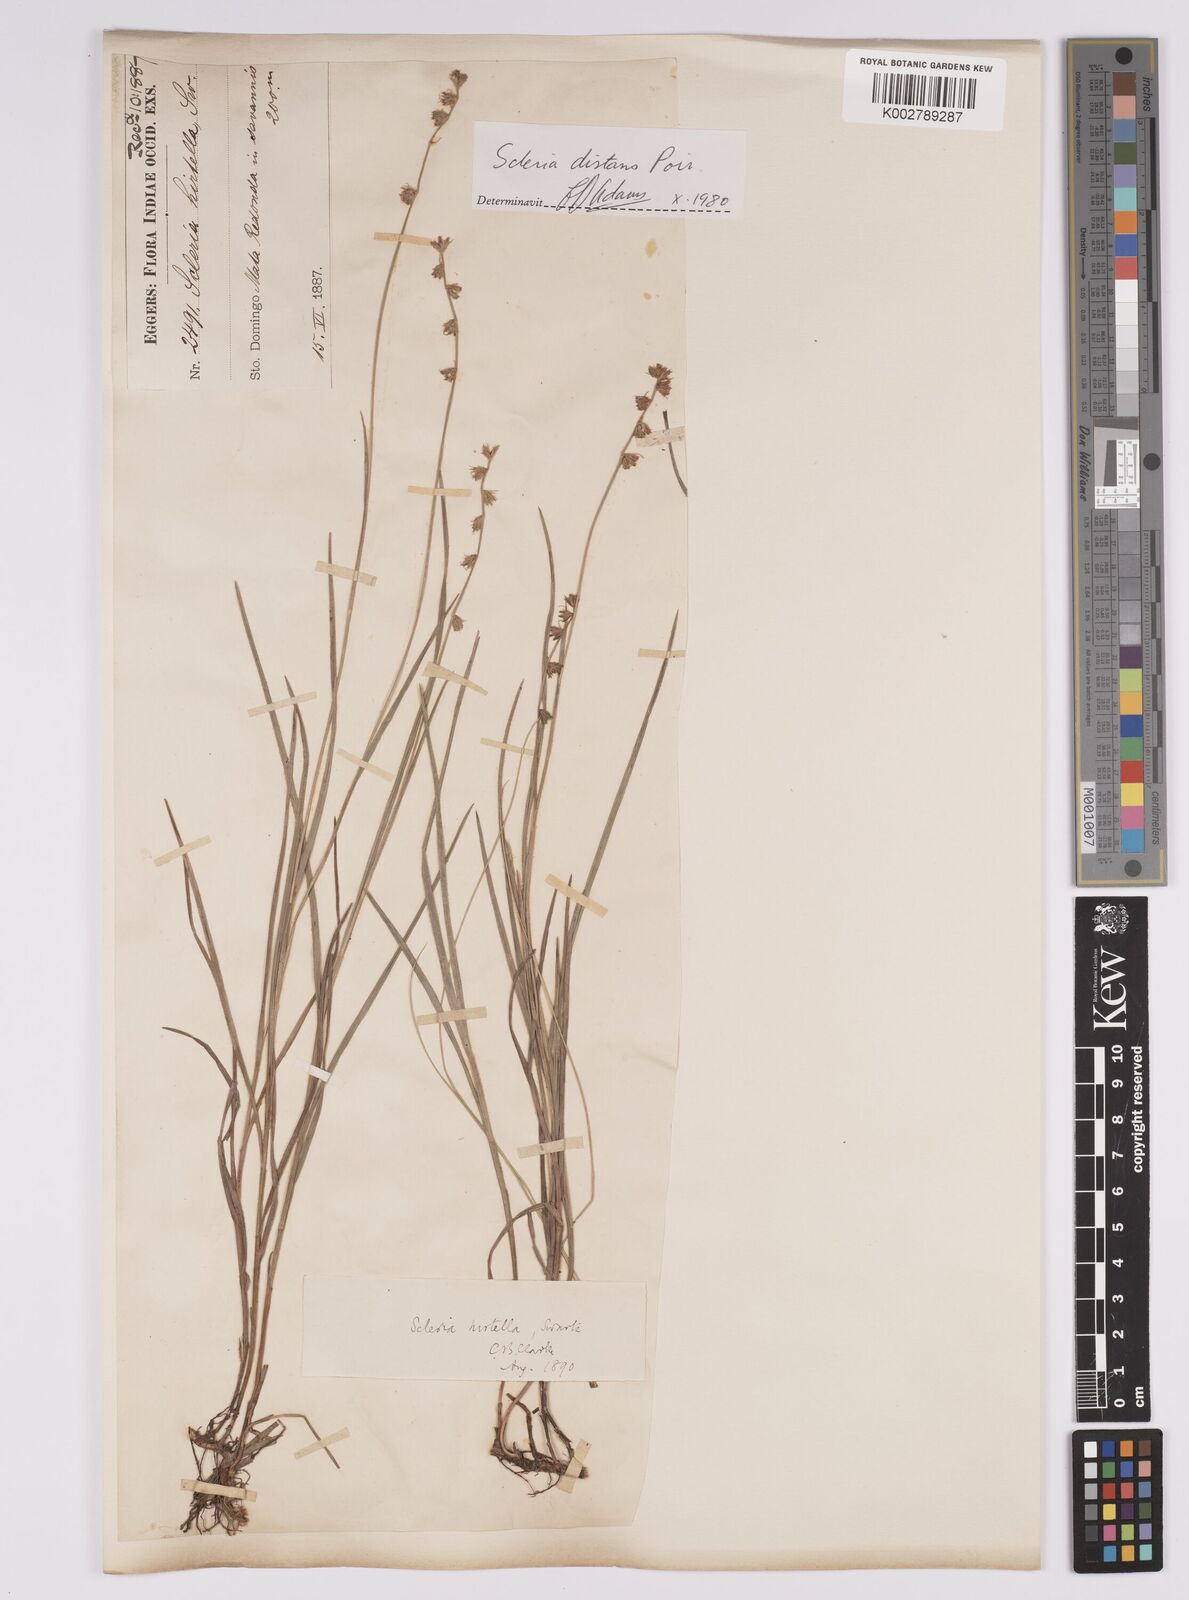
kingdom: Plantae
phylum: Tracheophyta
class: Liliopsida
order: Poales
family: Cyperaceae
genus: Scleria
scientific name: Scleria distans
